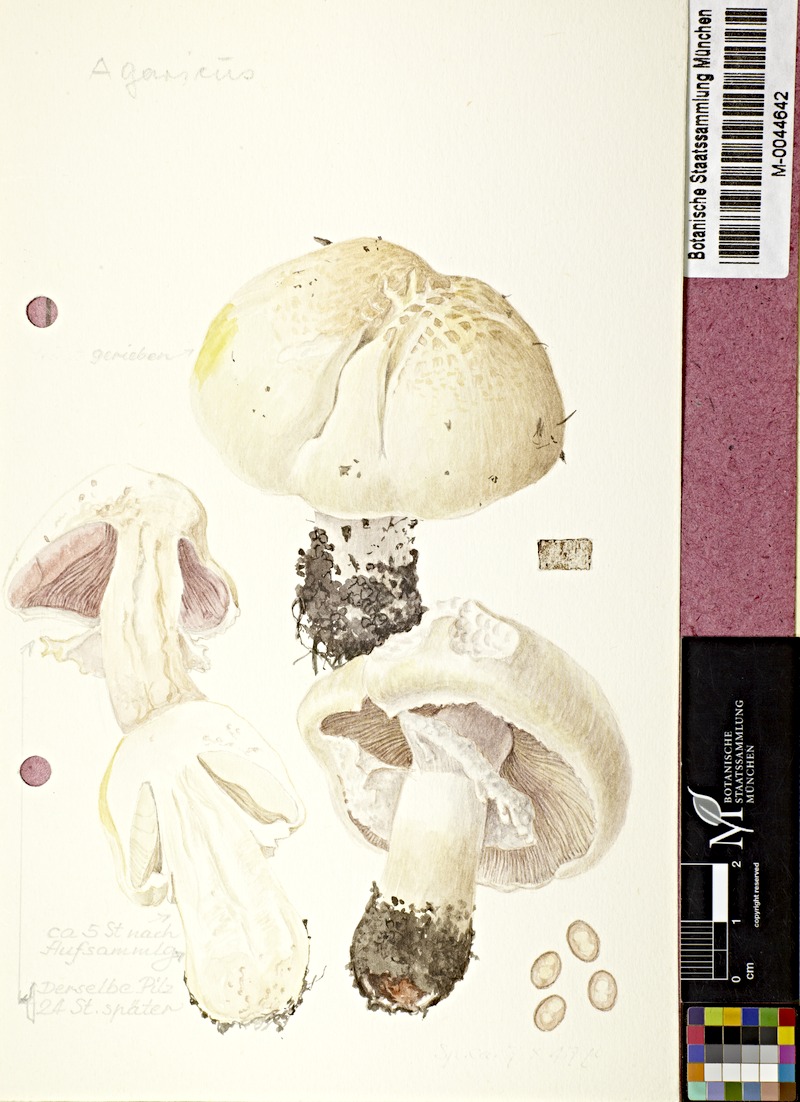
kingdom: Fungi
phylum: Basidiomycota
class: Agaricomycetes
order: Agaricales
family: Agaricaceae
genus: Agaricus
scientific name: Agaricus
